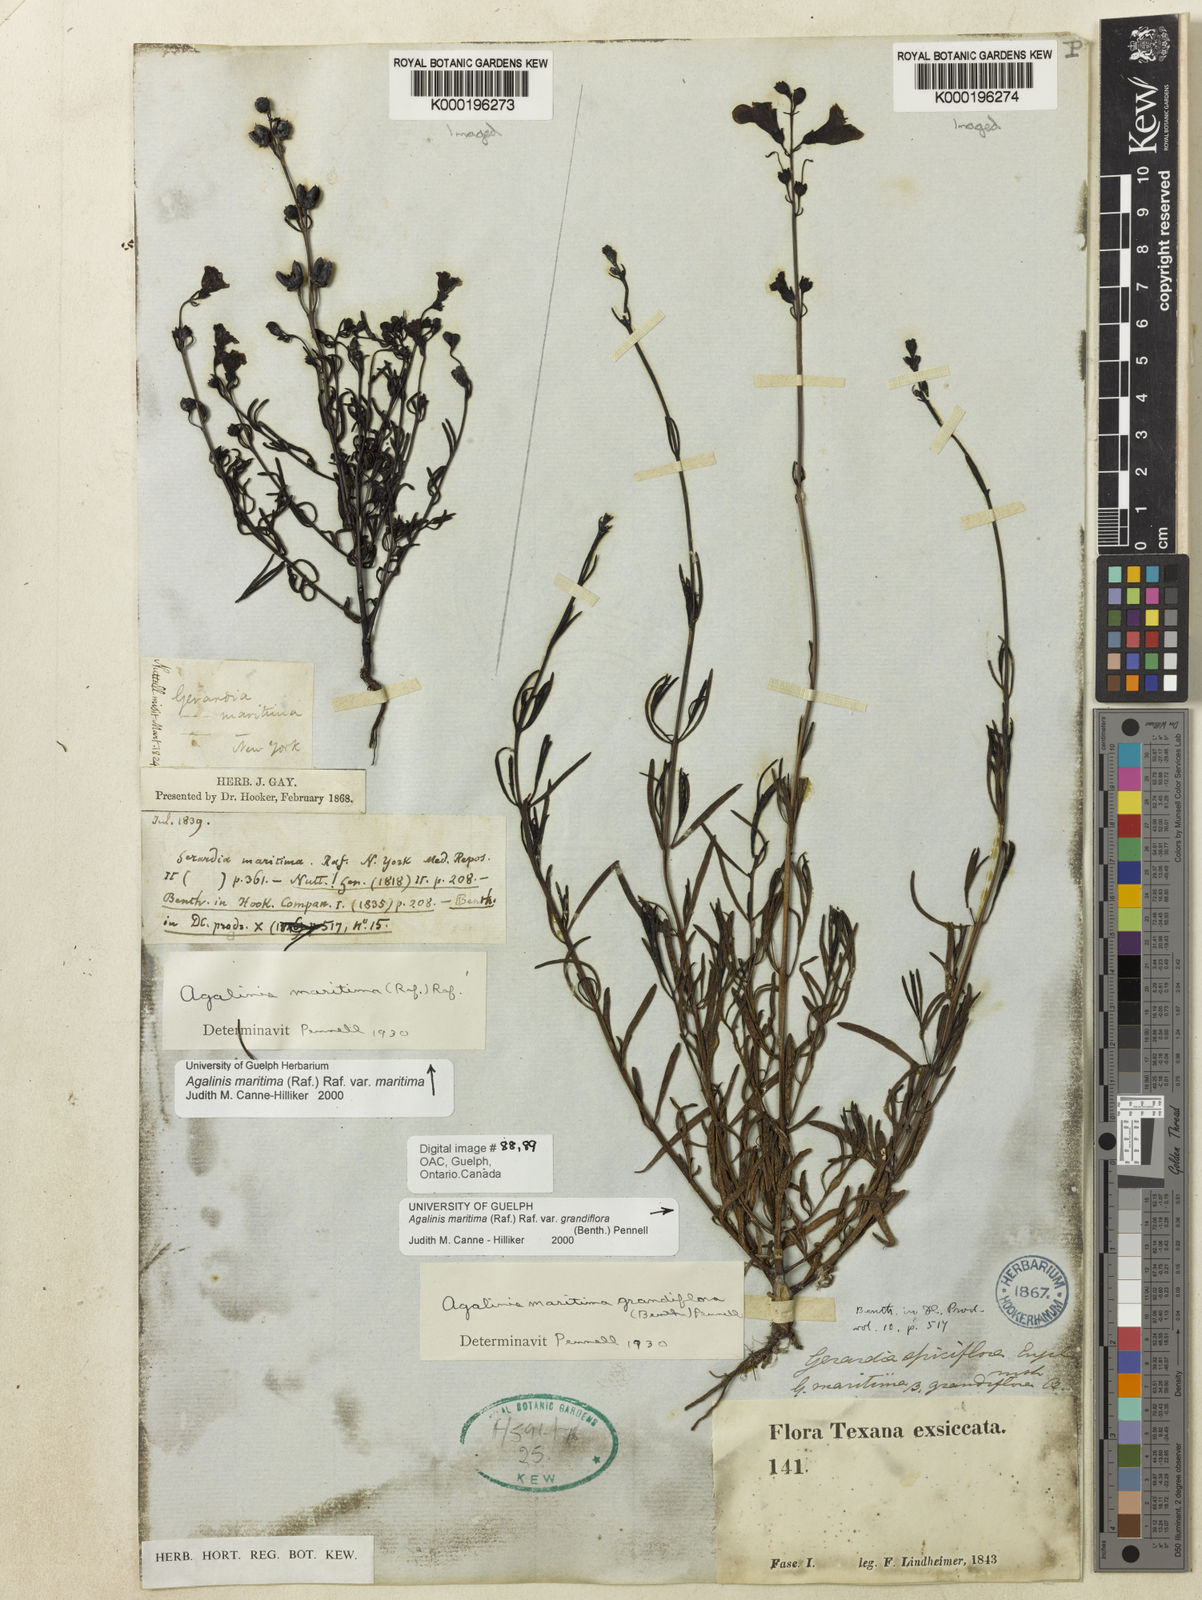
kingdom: Plantae
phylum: Tracheophyta
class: Magnoliopsida
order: Lamiales
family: Orobanchaceae
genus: Agalinis
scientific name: Agalinis maritima
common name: Saltmarsh agalinis
